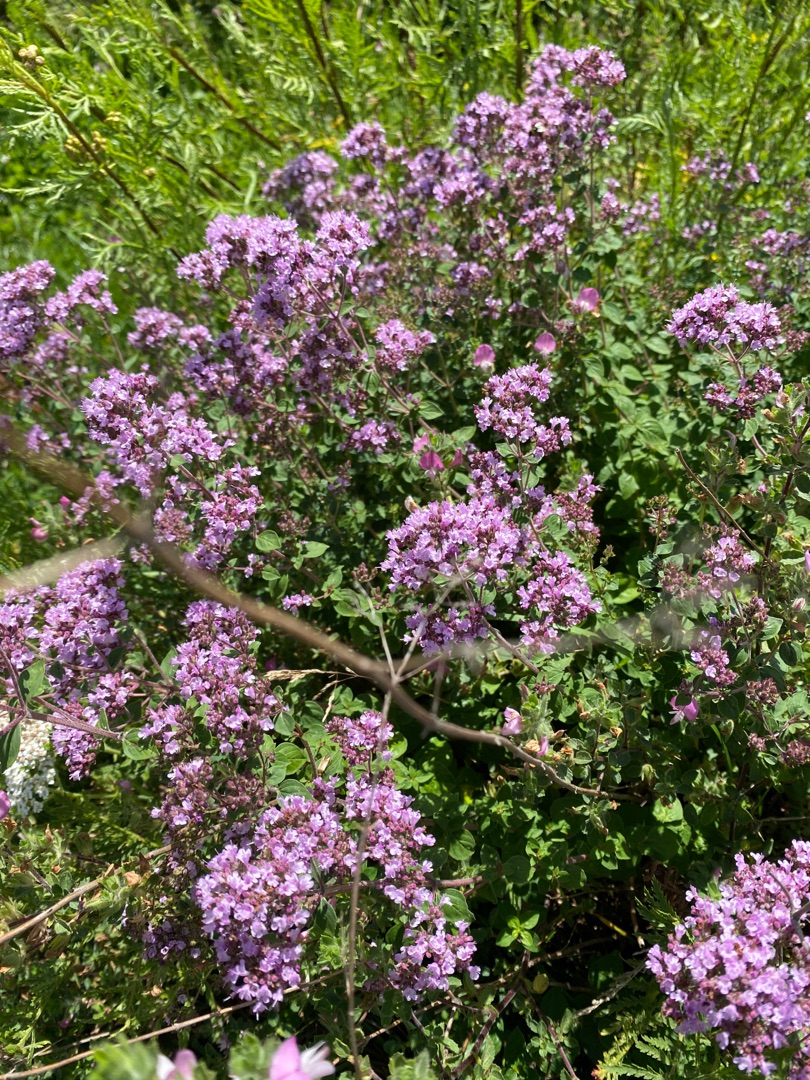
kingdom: Plantae
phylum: Tracheophyta
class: Magnoliopsida
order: Lamiales
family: Lamiaceae
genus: Origanum
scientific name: Origanum vulgare
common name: Merian
